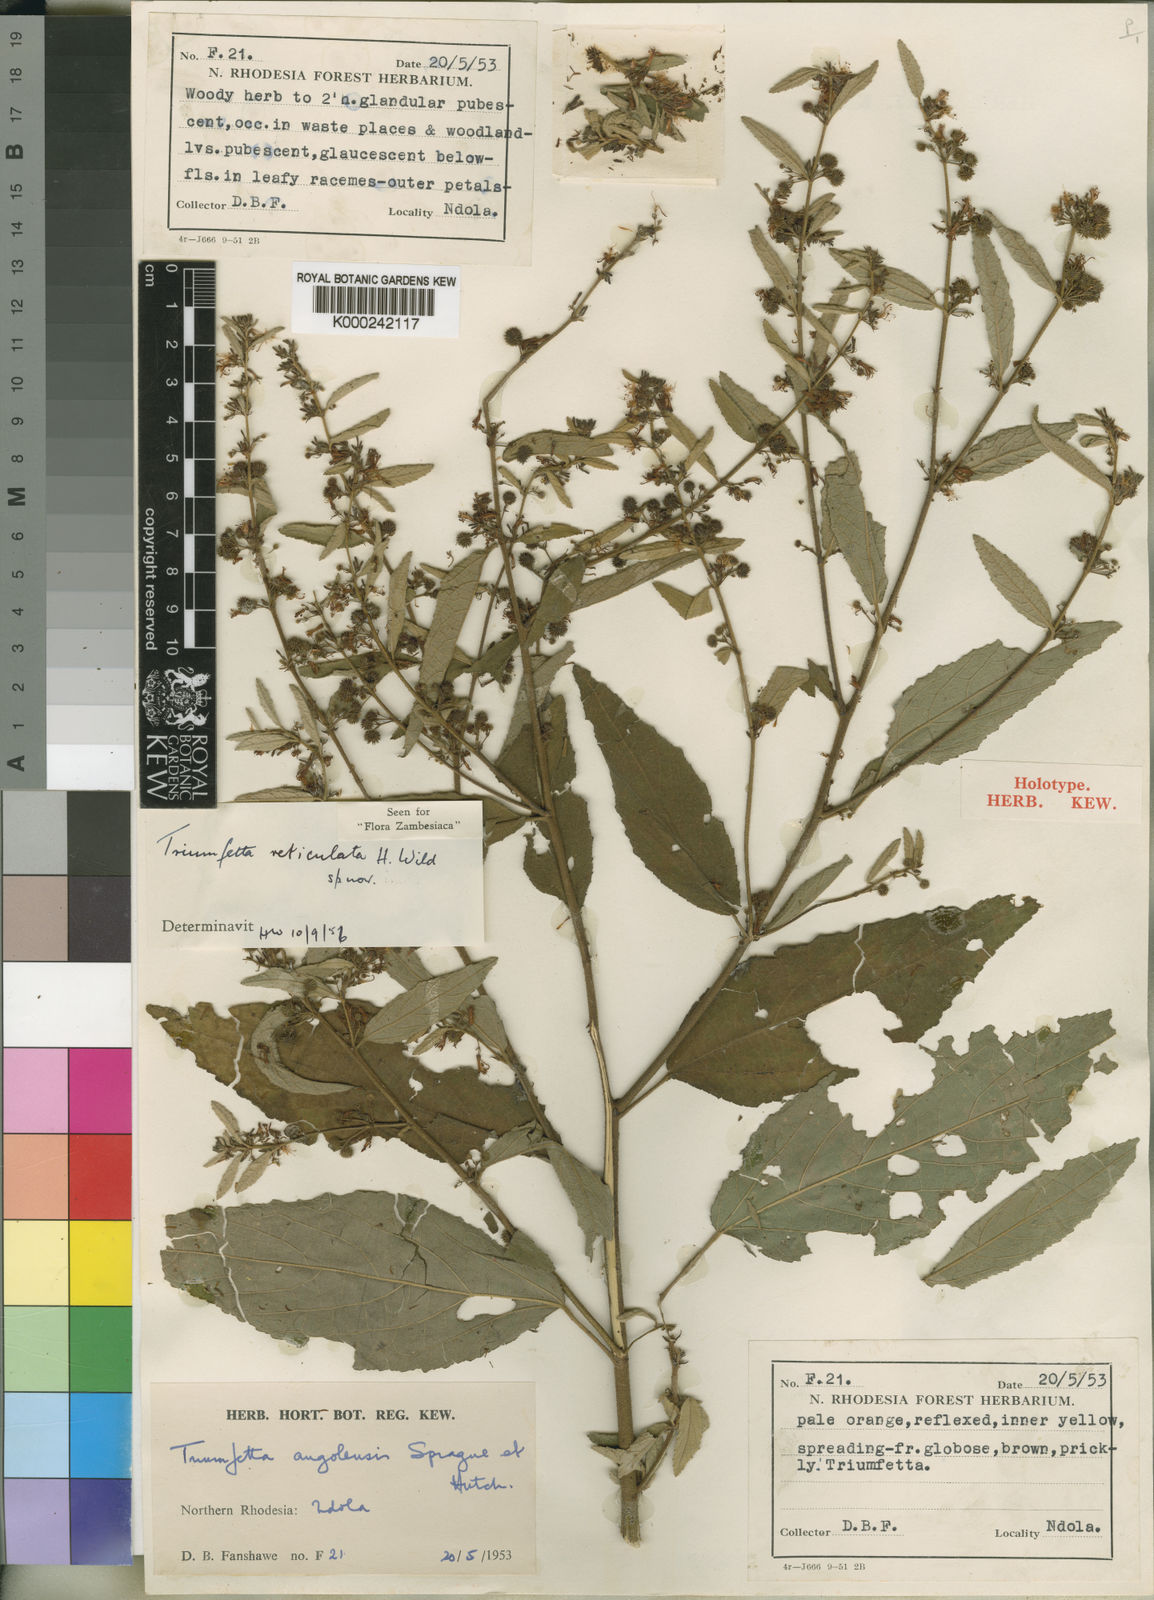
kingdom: Plantae
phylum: Tracheophyta
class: Magnoliopsida
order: Malvales
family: Malvaceae
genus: Triumfetta
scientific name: Triumfetta reticulata
